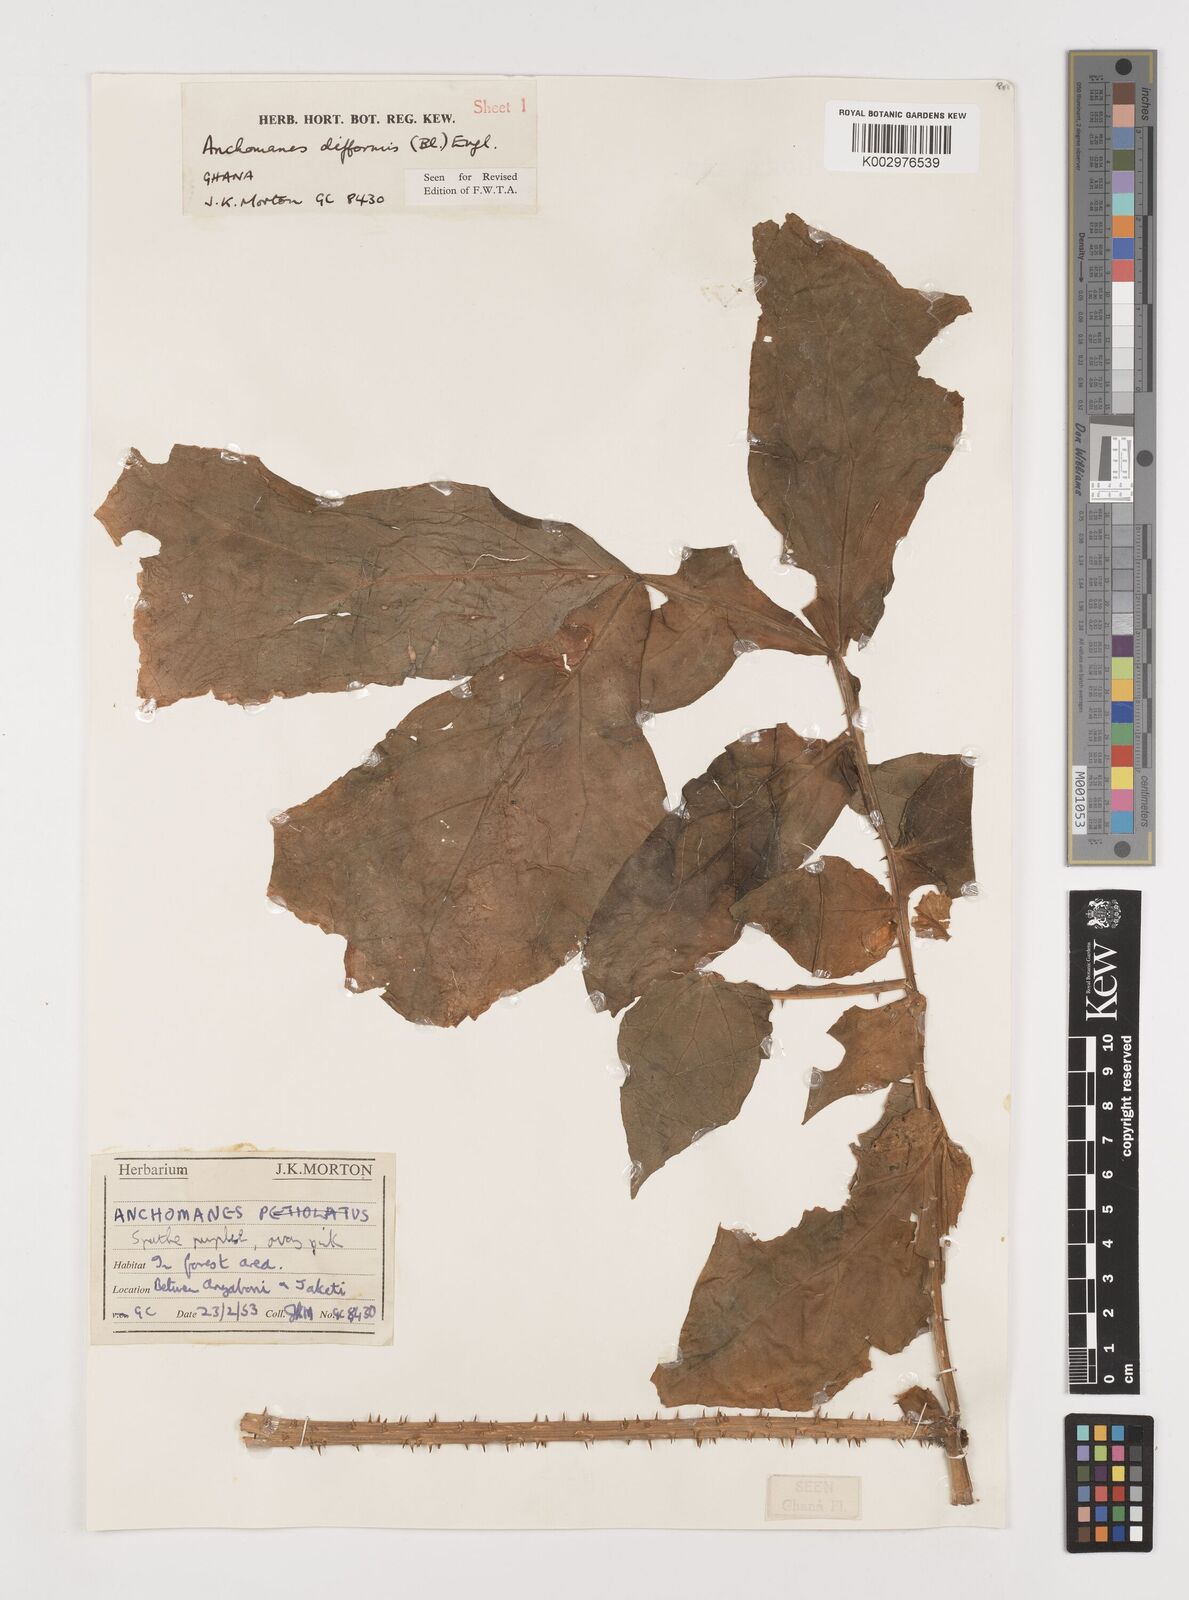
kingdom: Plantae
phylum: Tracheophyta
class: Liliopsida
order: Alismatales
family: Araceae
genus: Anchomanes
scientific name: Anchomanes difformis
